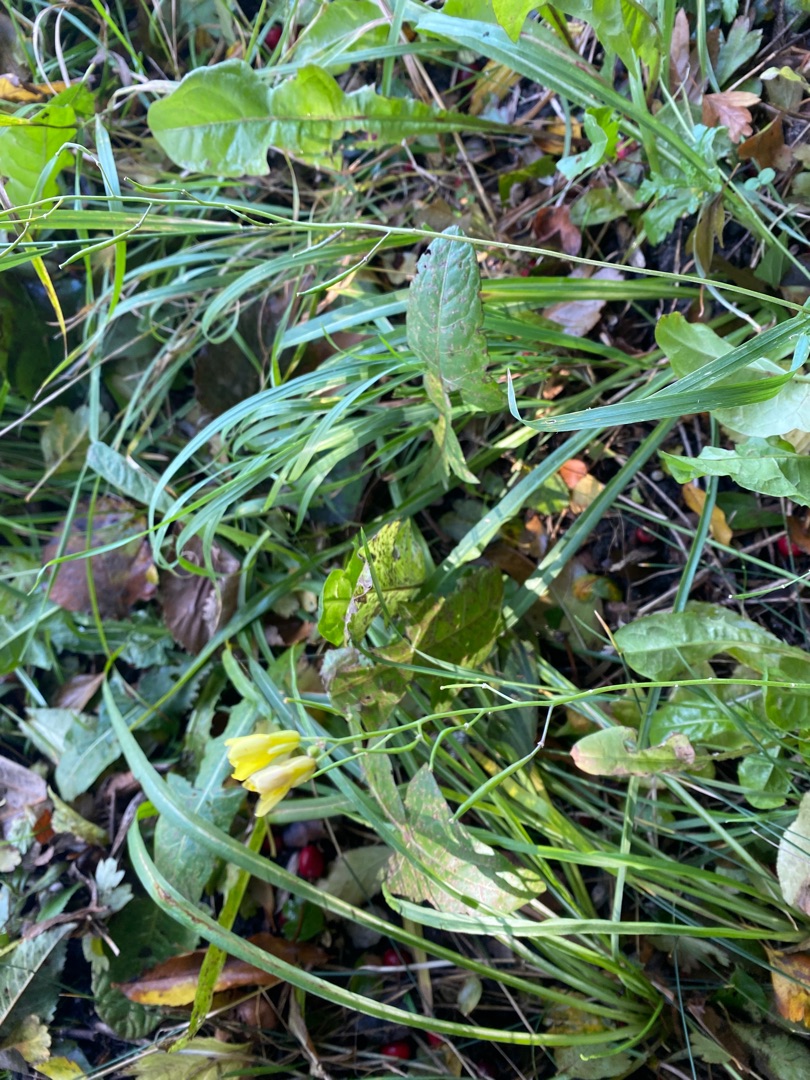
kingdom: Plantae
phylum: Tracheophyta
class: Magnoliopsida
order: Brassicales
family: Brassicaceae
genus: Diplotaxis
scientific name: Diplotaxis tenuifolia
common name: Sandsennep
